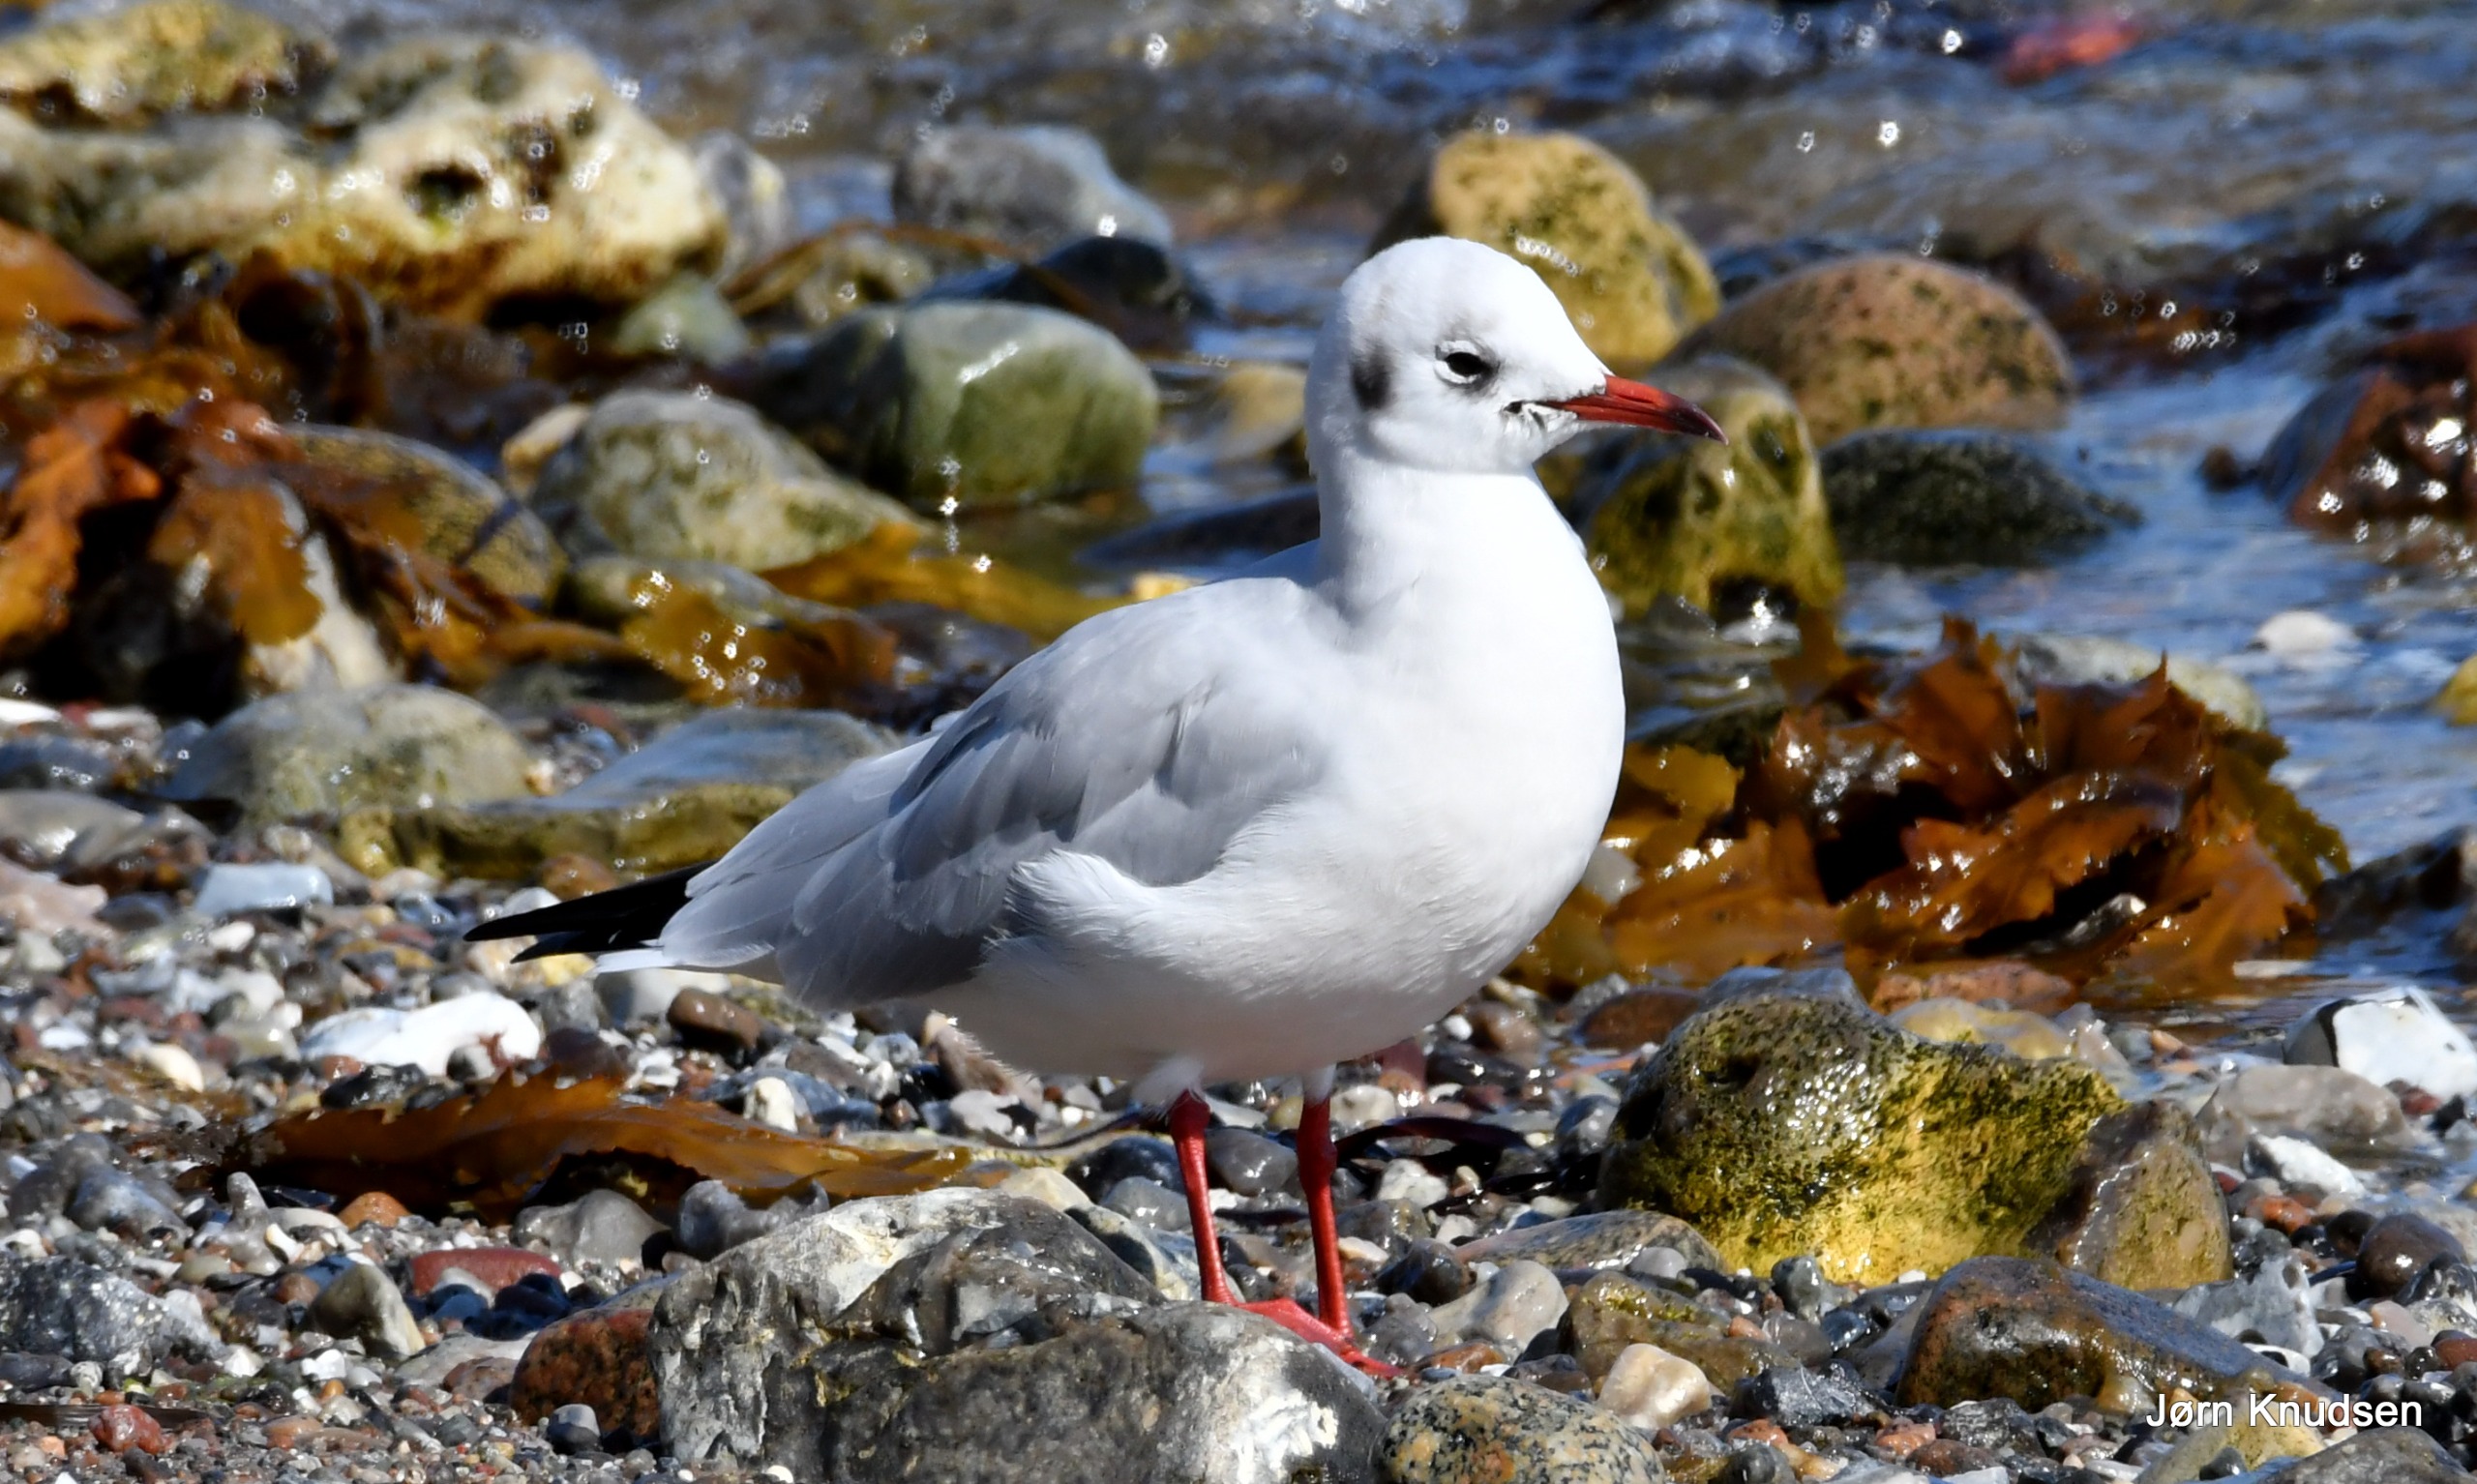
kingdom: Animalia
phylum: Chordata
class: Aves
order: Charadriiformes
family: Laridae
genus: Chroicocephalus
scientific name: Chroicocephalus ridibundus
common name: Hættemåge
